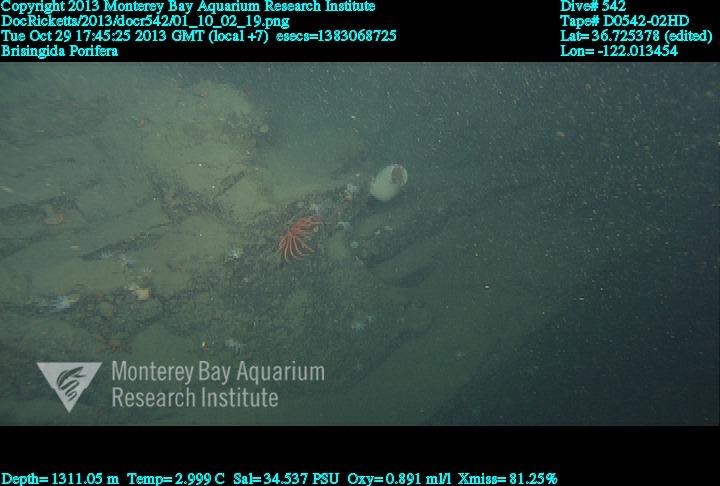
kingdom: Animalia
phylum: Porifera
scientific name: Porifera
